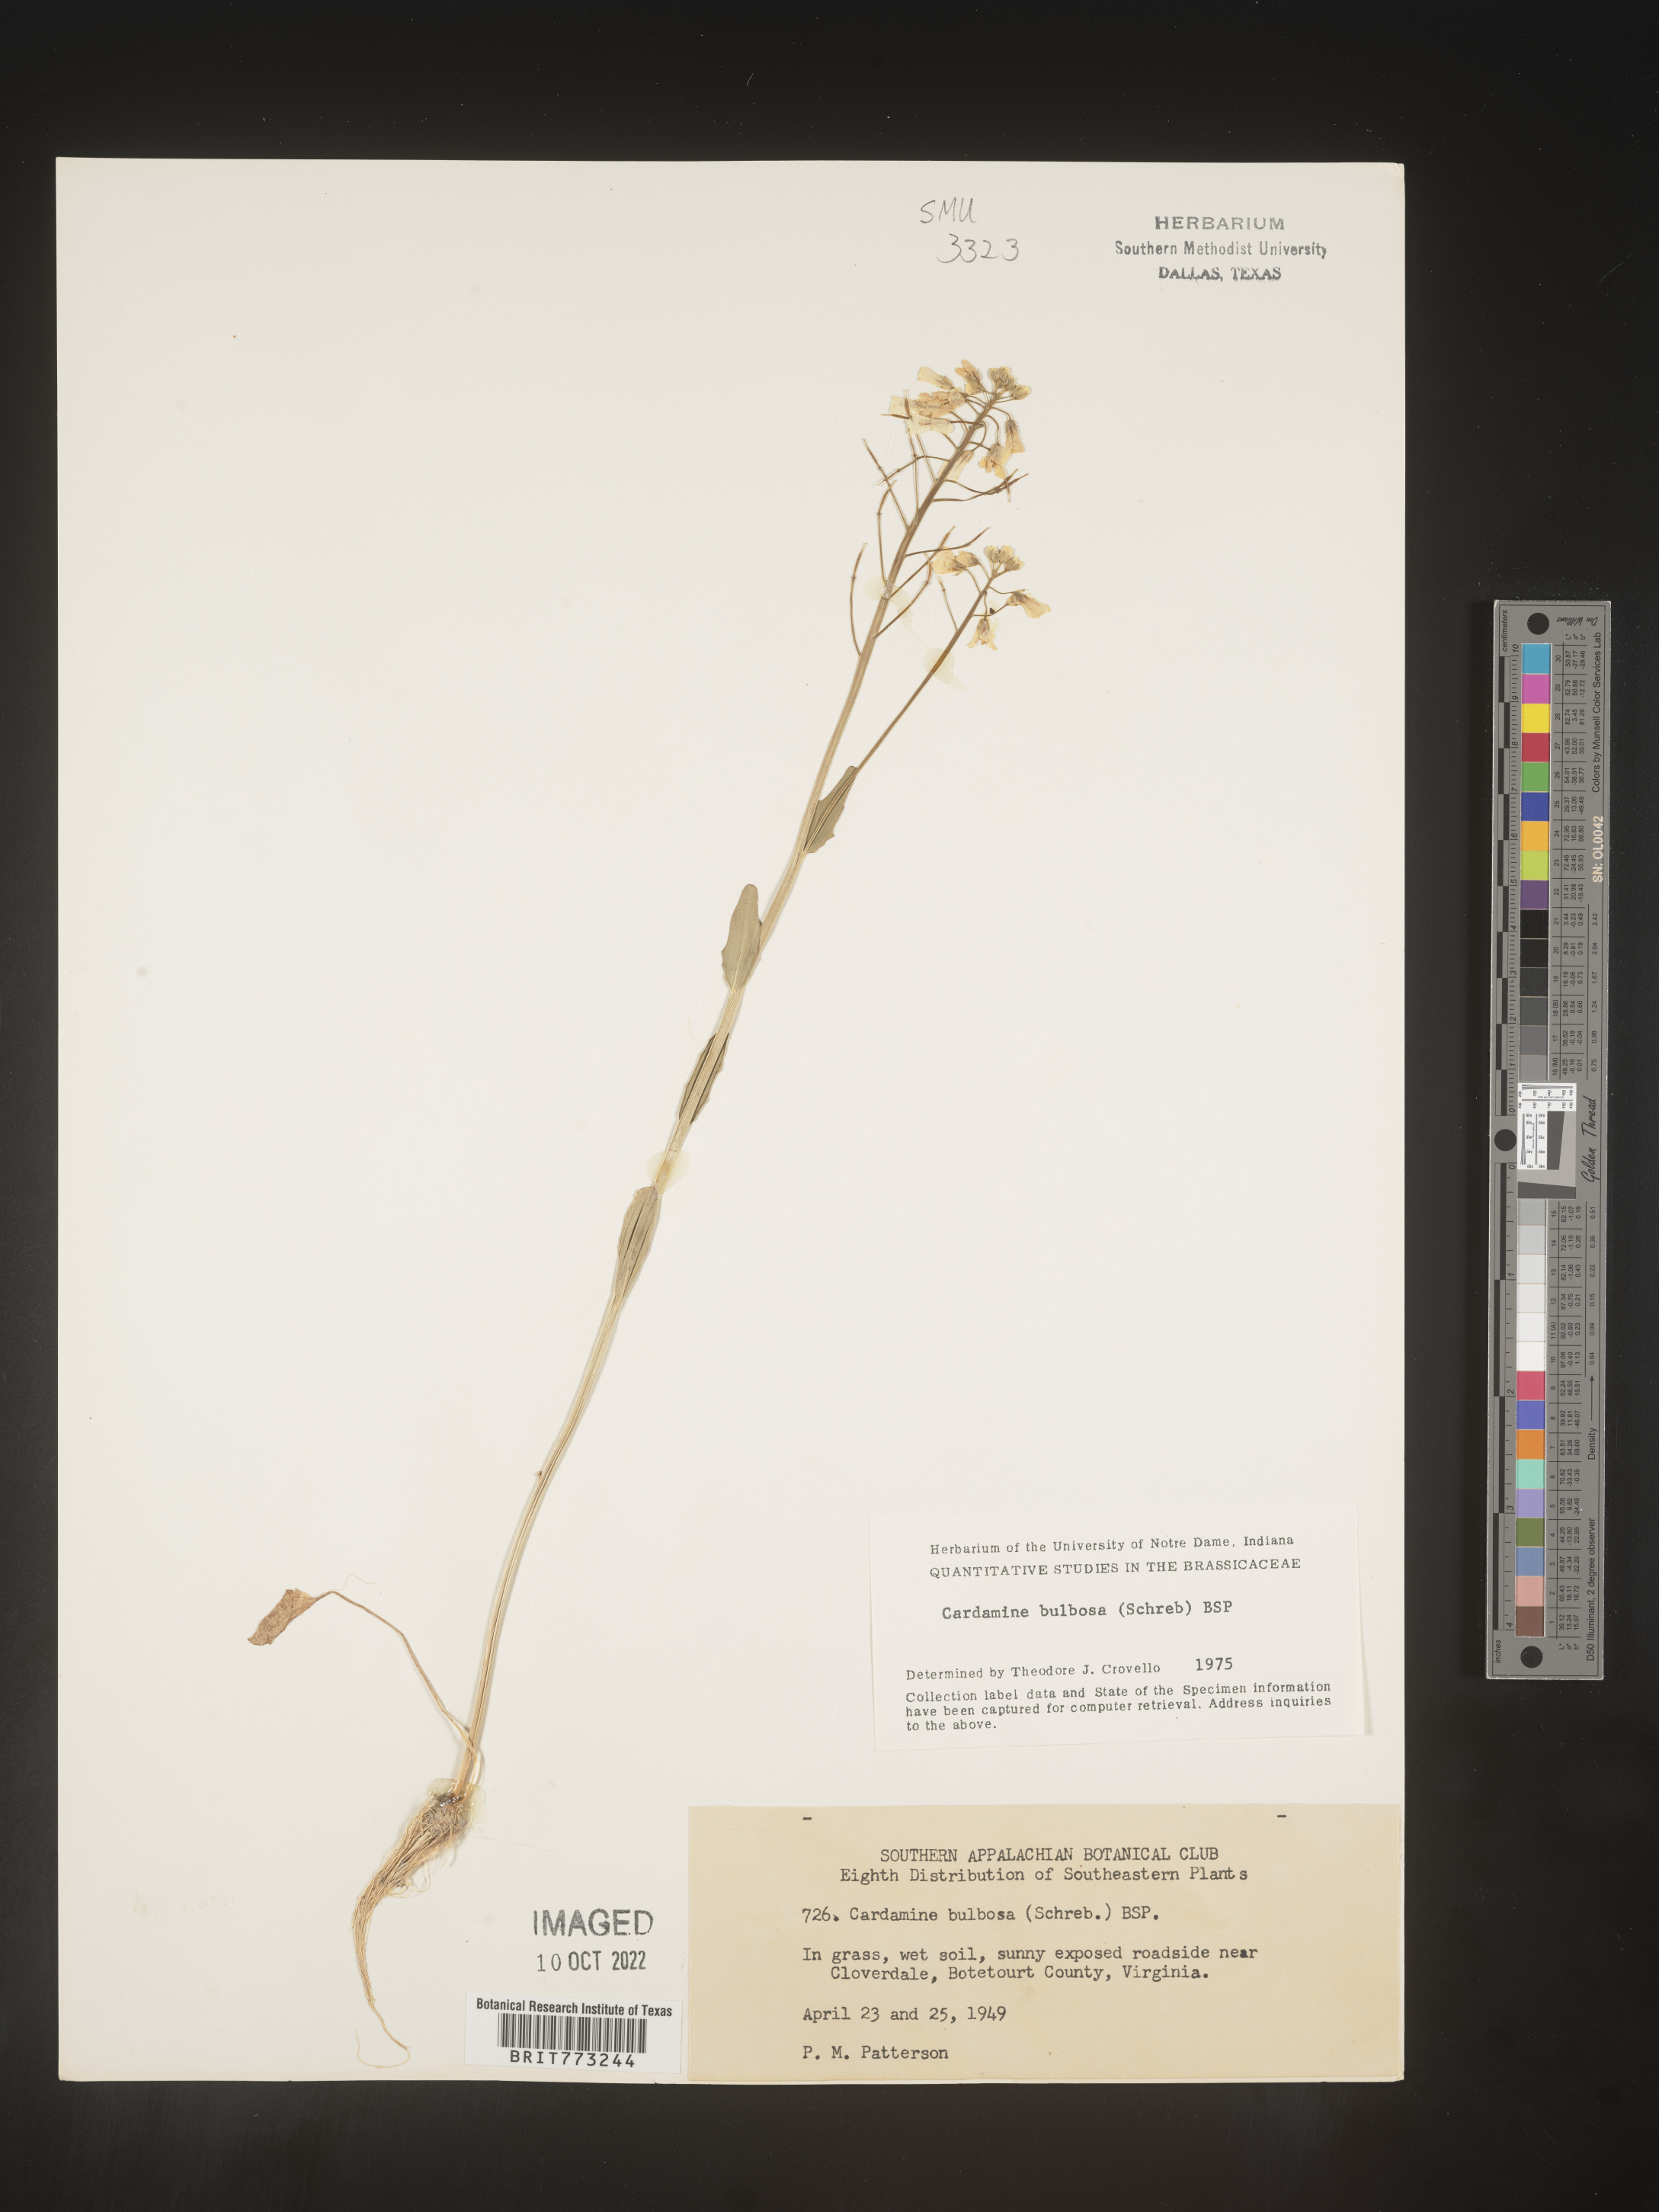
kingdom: Plantae
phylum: Tracheophyta
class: Magnoliopsida
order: Brassicales
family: Brassicaceae
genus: Cardamine
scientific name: Cardamine bulbosa
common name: Spring cress
